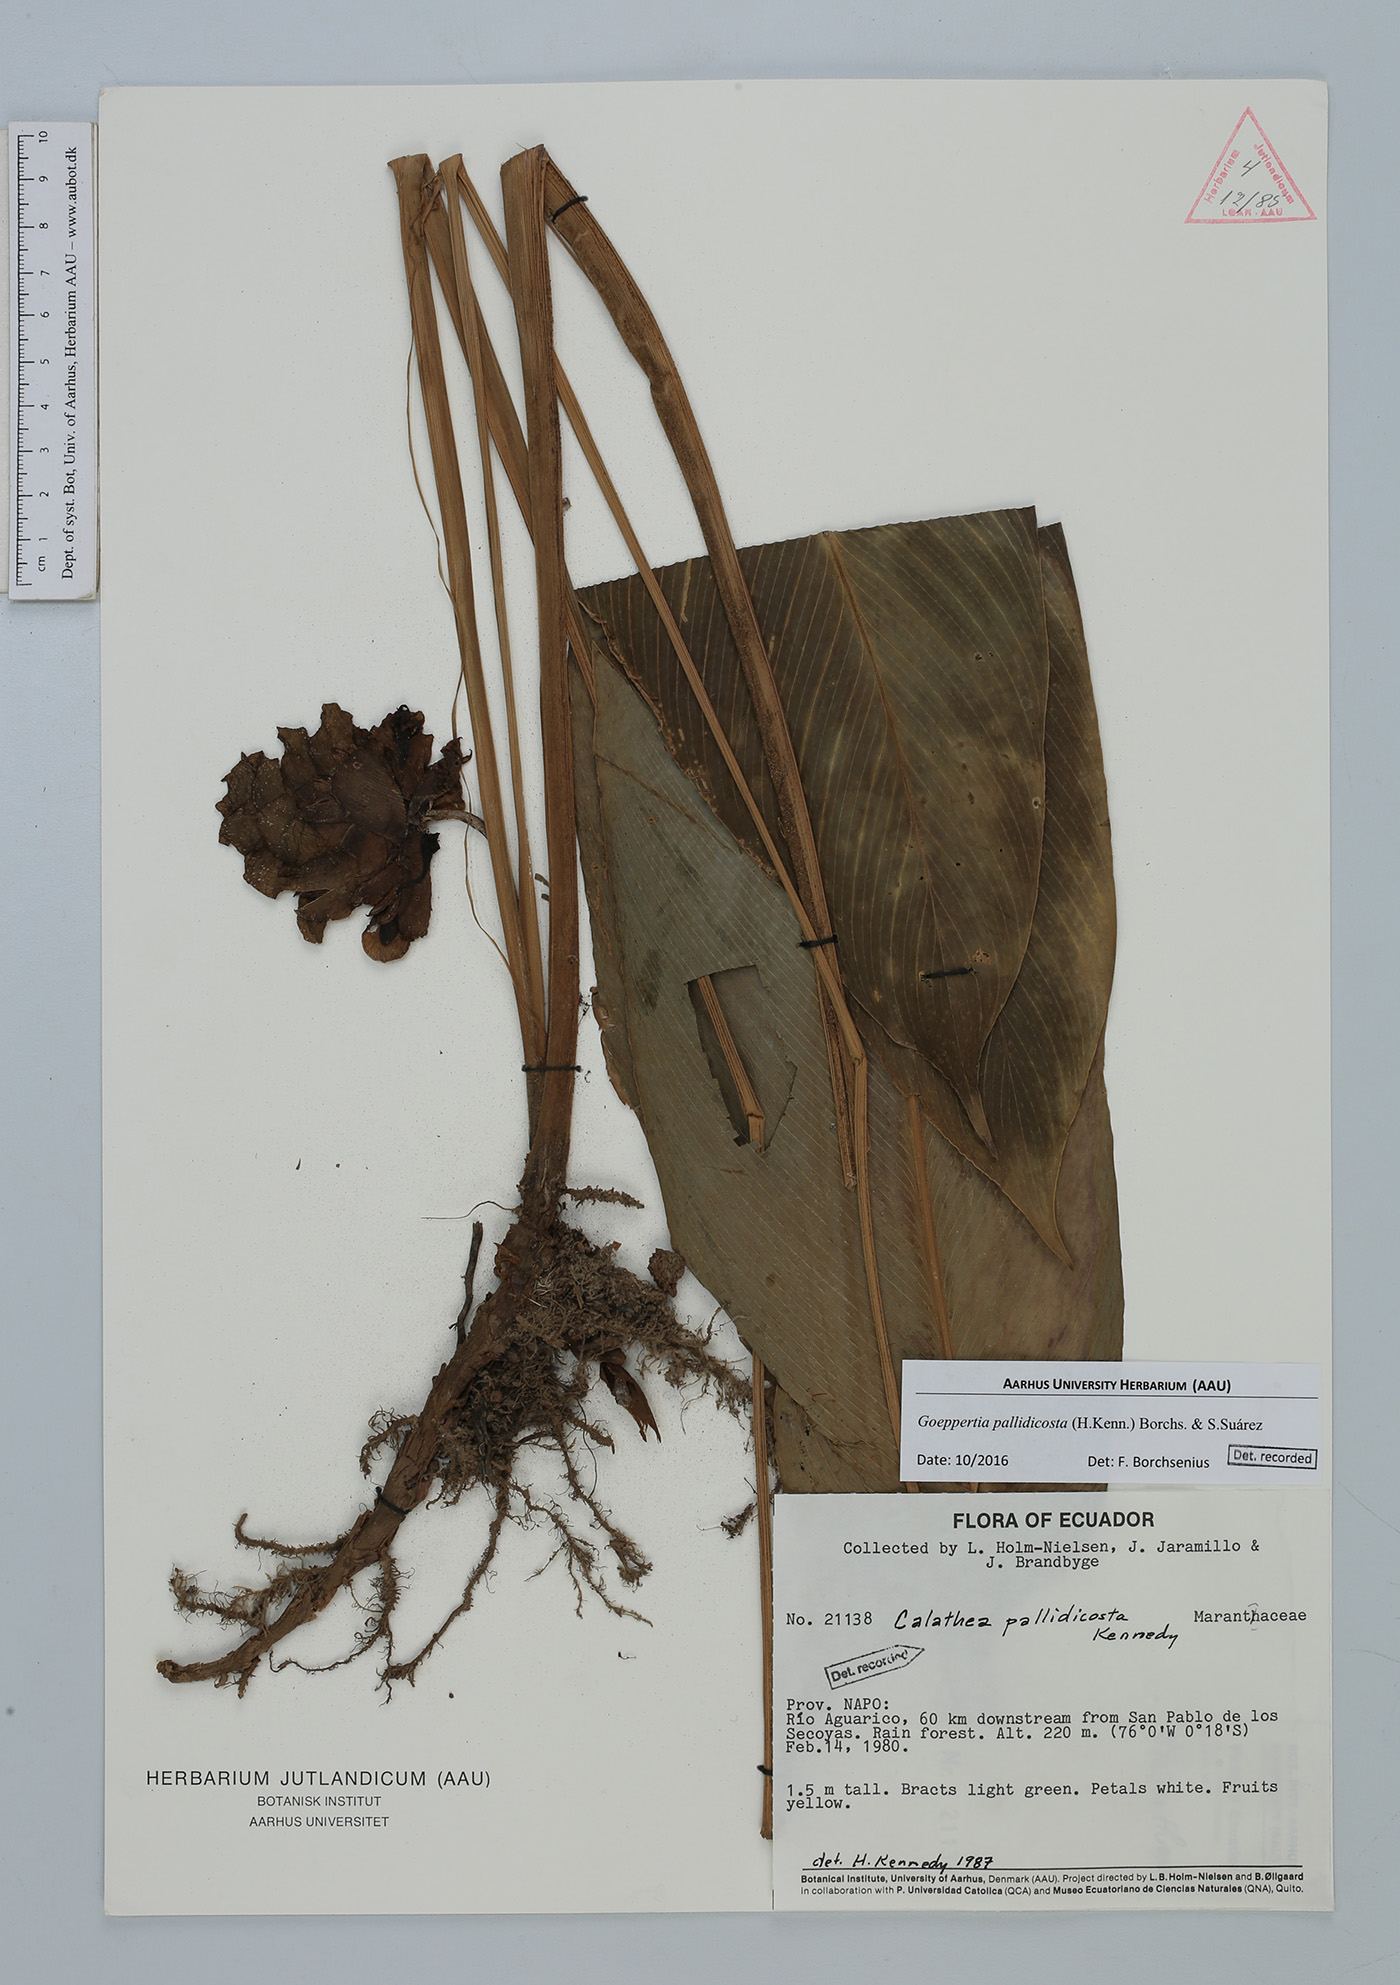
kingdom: Plantae
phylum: Tracheophyta
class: Liliopsida
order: Zingiberales
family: Marantaceae
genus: Goeppertia
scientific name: Goeppertia pallidicosta
